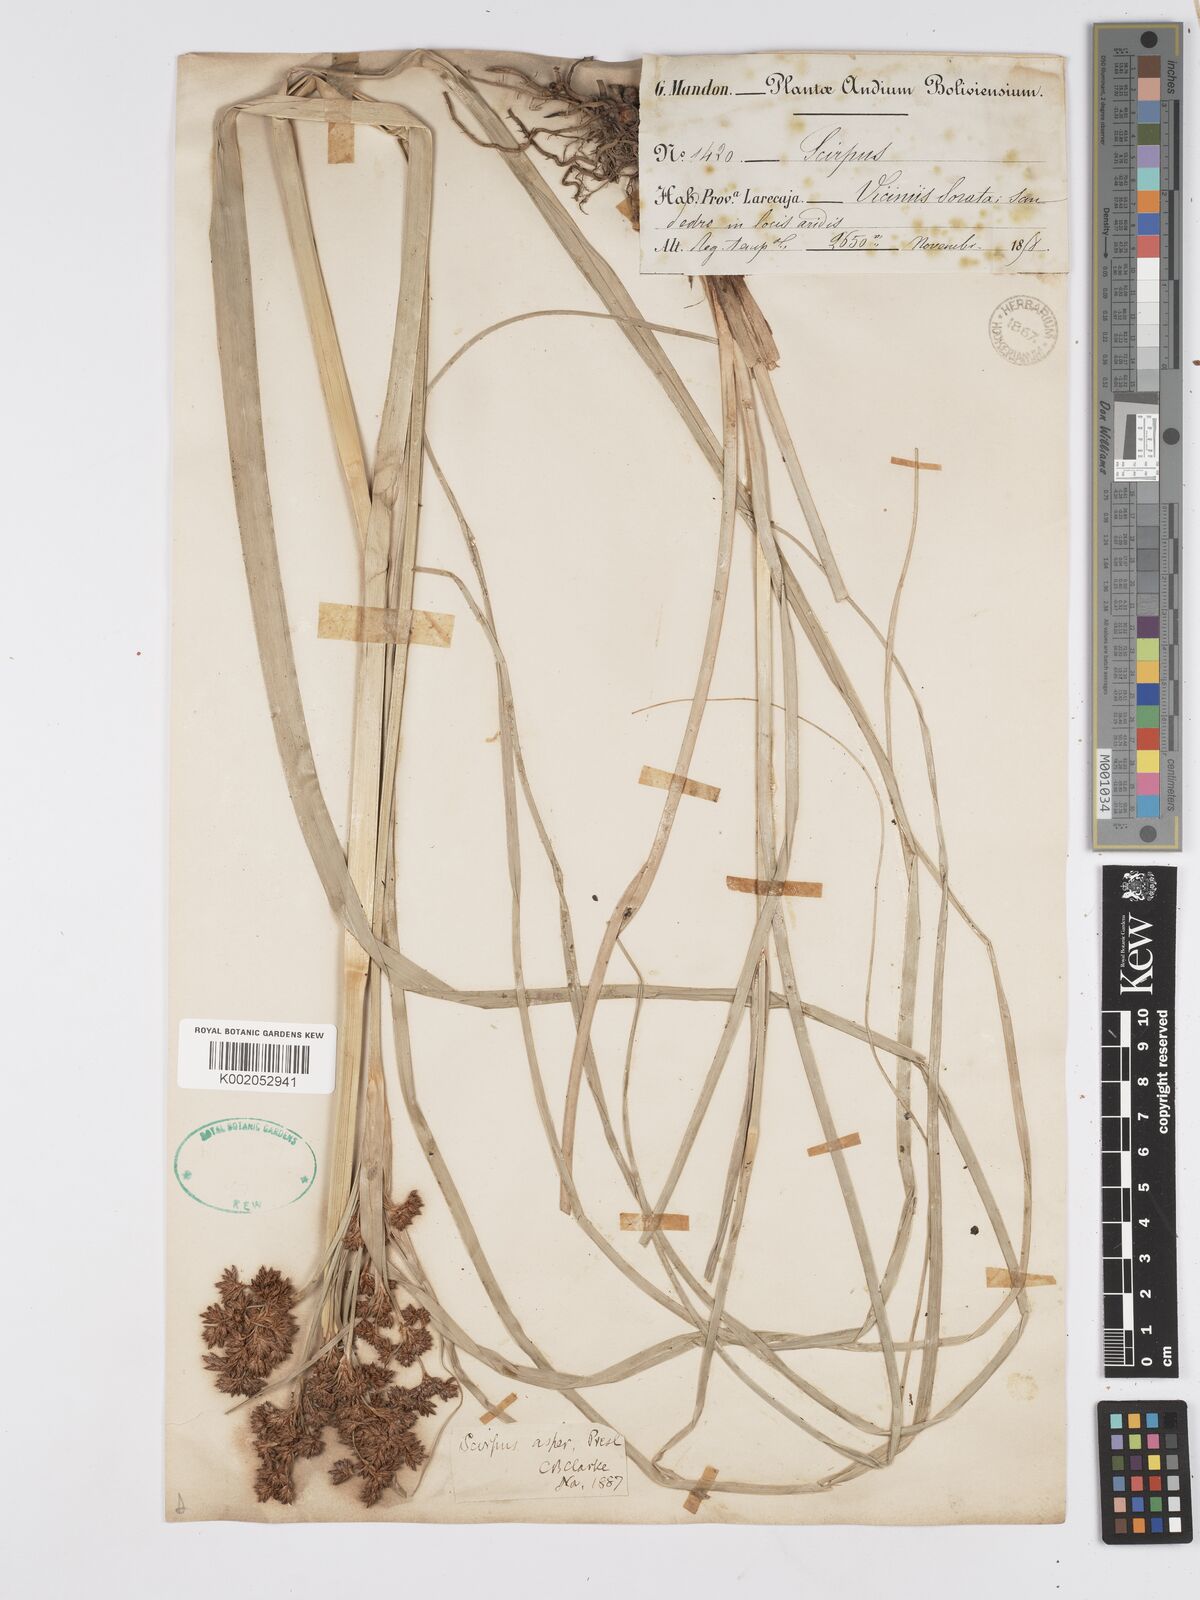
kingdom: Plantae
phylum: Tracheophyta
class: Liliopsida
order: Poales
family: Cyperaceae
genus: Rhodoscirpus
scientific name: Rhodoscirpus asper
